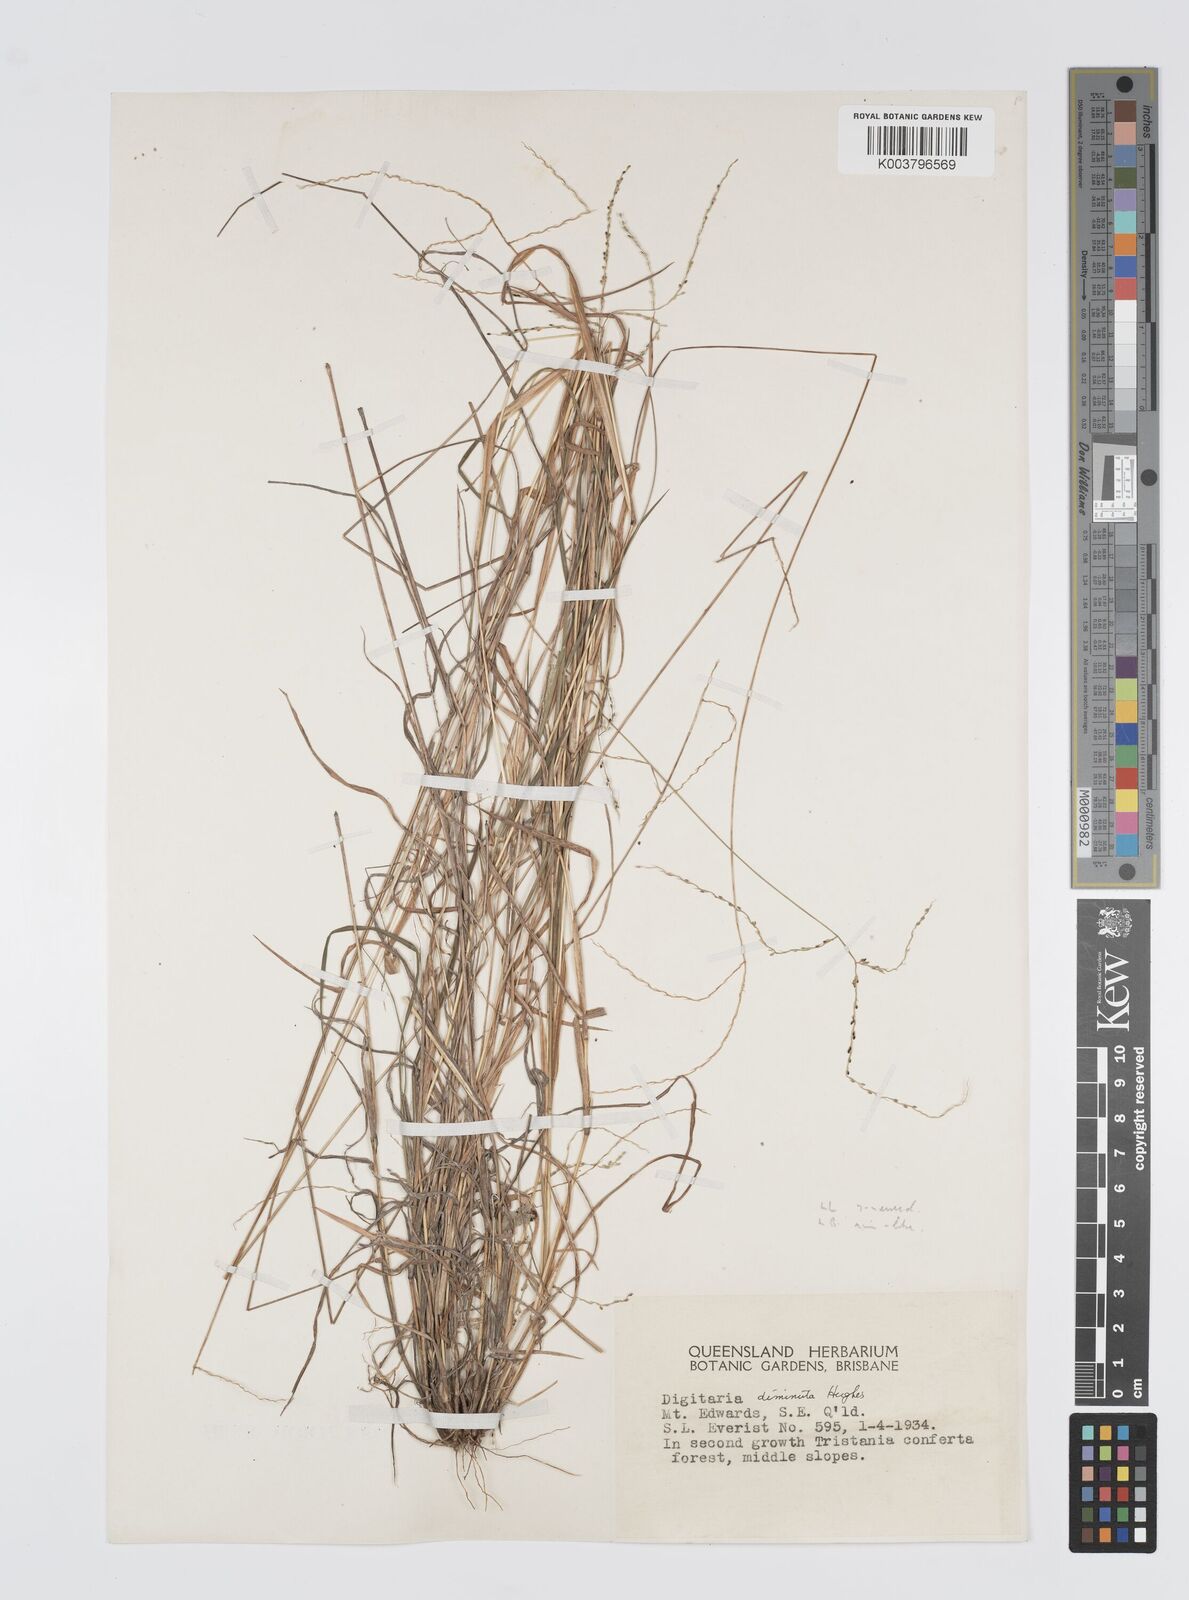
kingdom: Plantae
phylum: Tracheophyta
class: Liliopsida
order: Poales
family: Poaceae
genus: Digitaria
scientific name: Digitaria breviglumis
